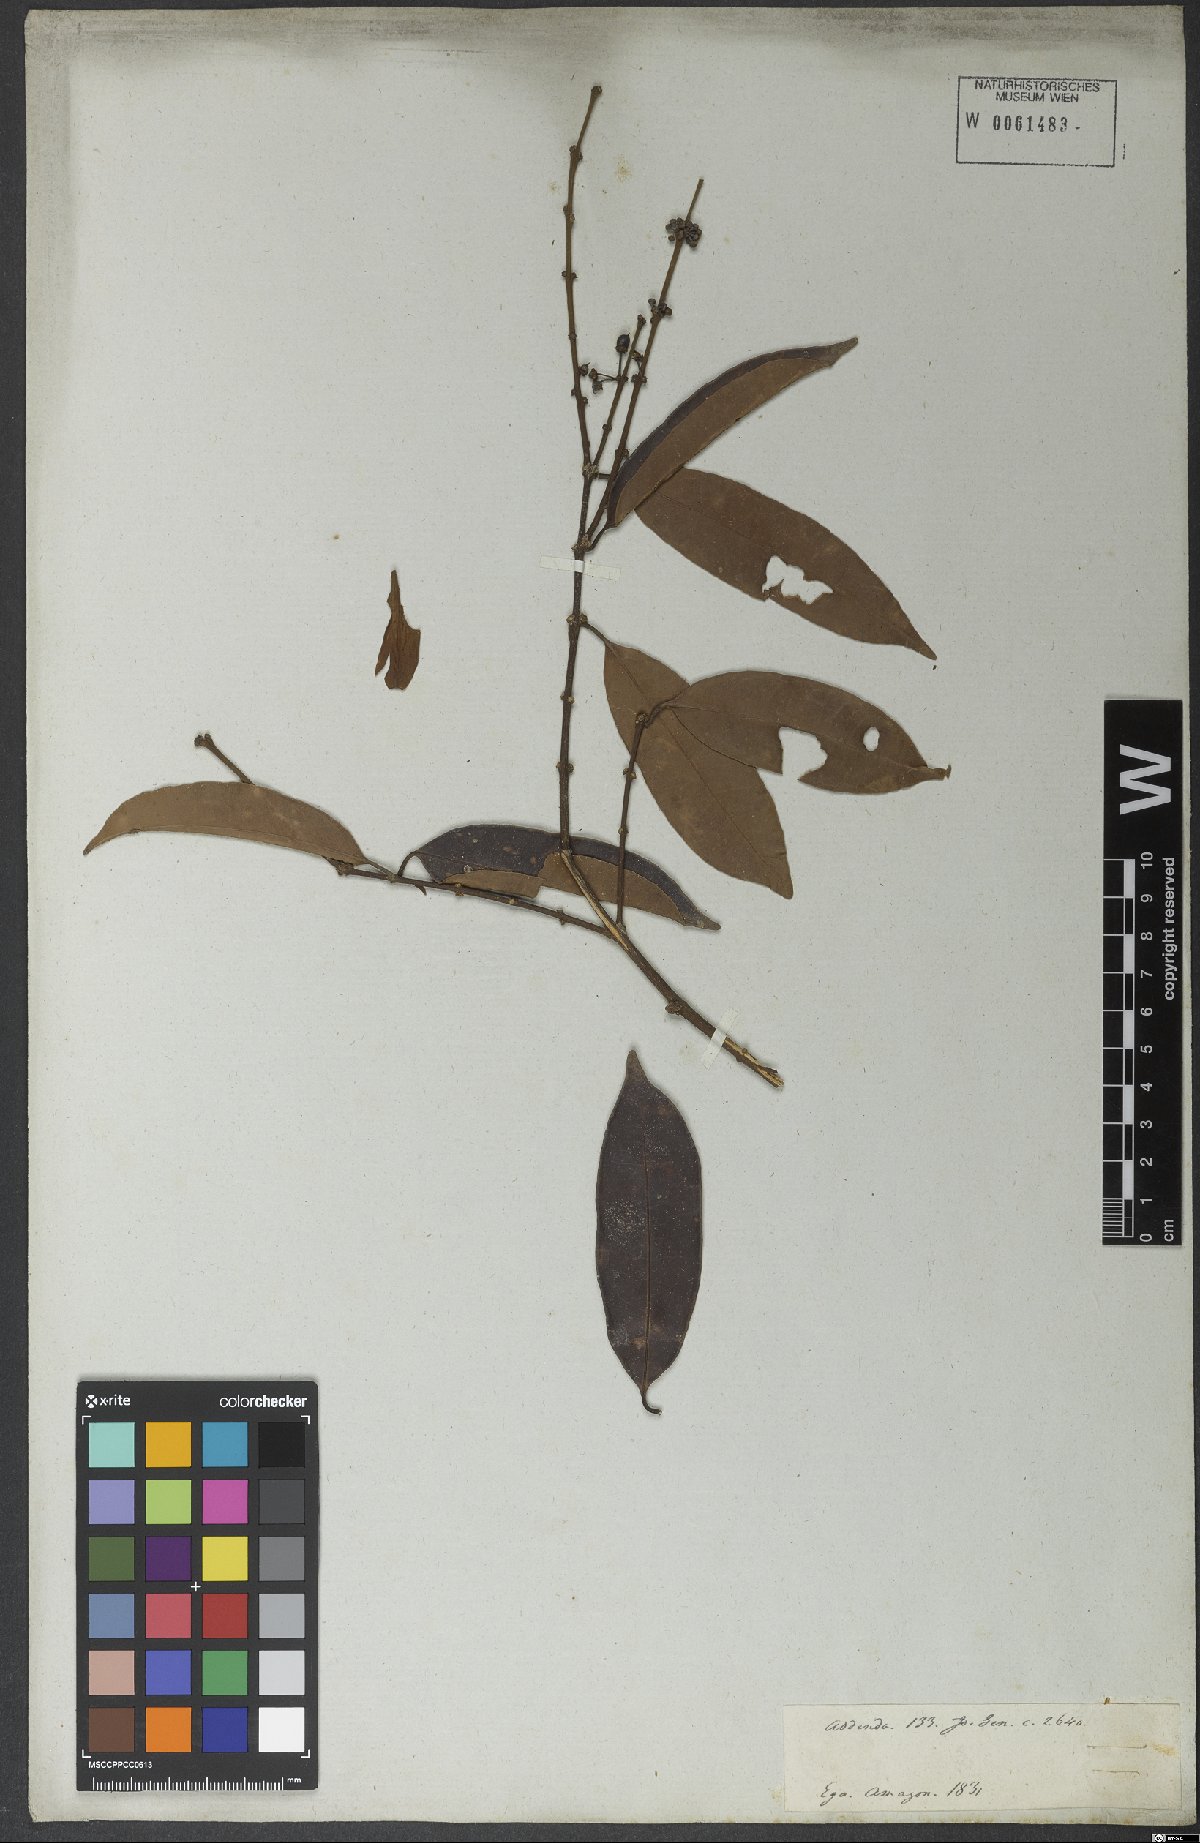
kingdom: Plantae
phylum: Tracheophyta
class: Magnoliopsida
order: Malpighiales
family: Clusiaceae
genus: Garcinia
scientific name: Garcinia
